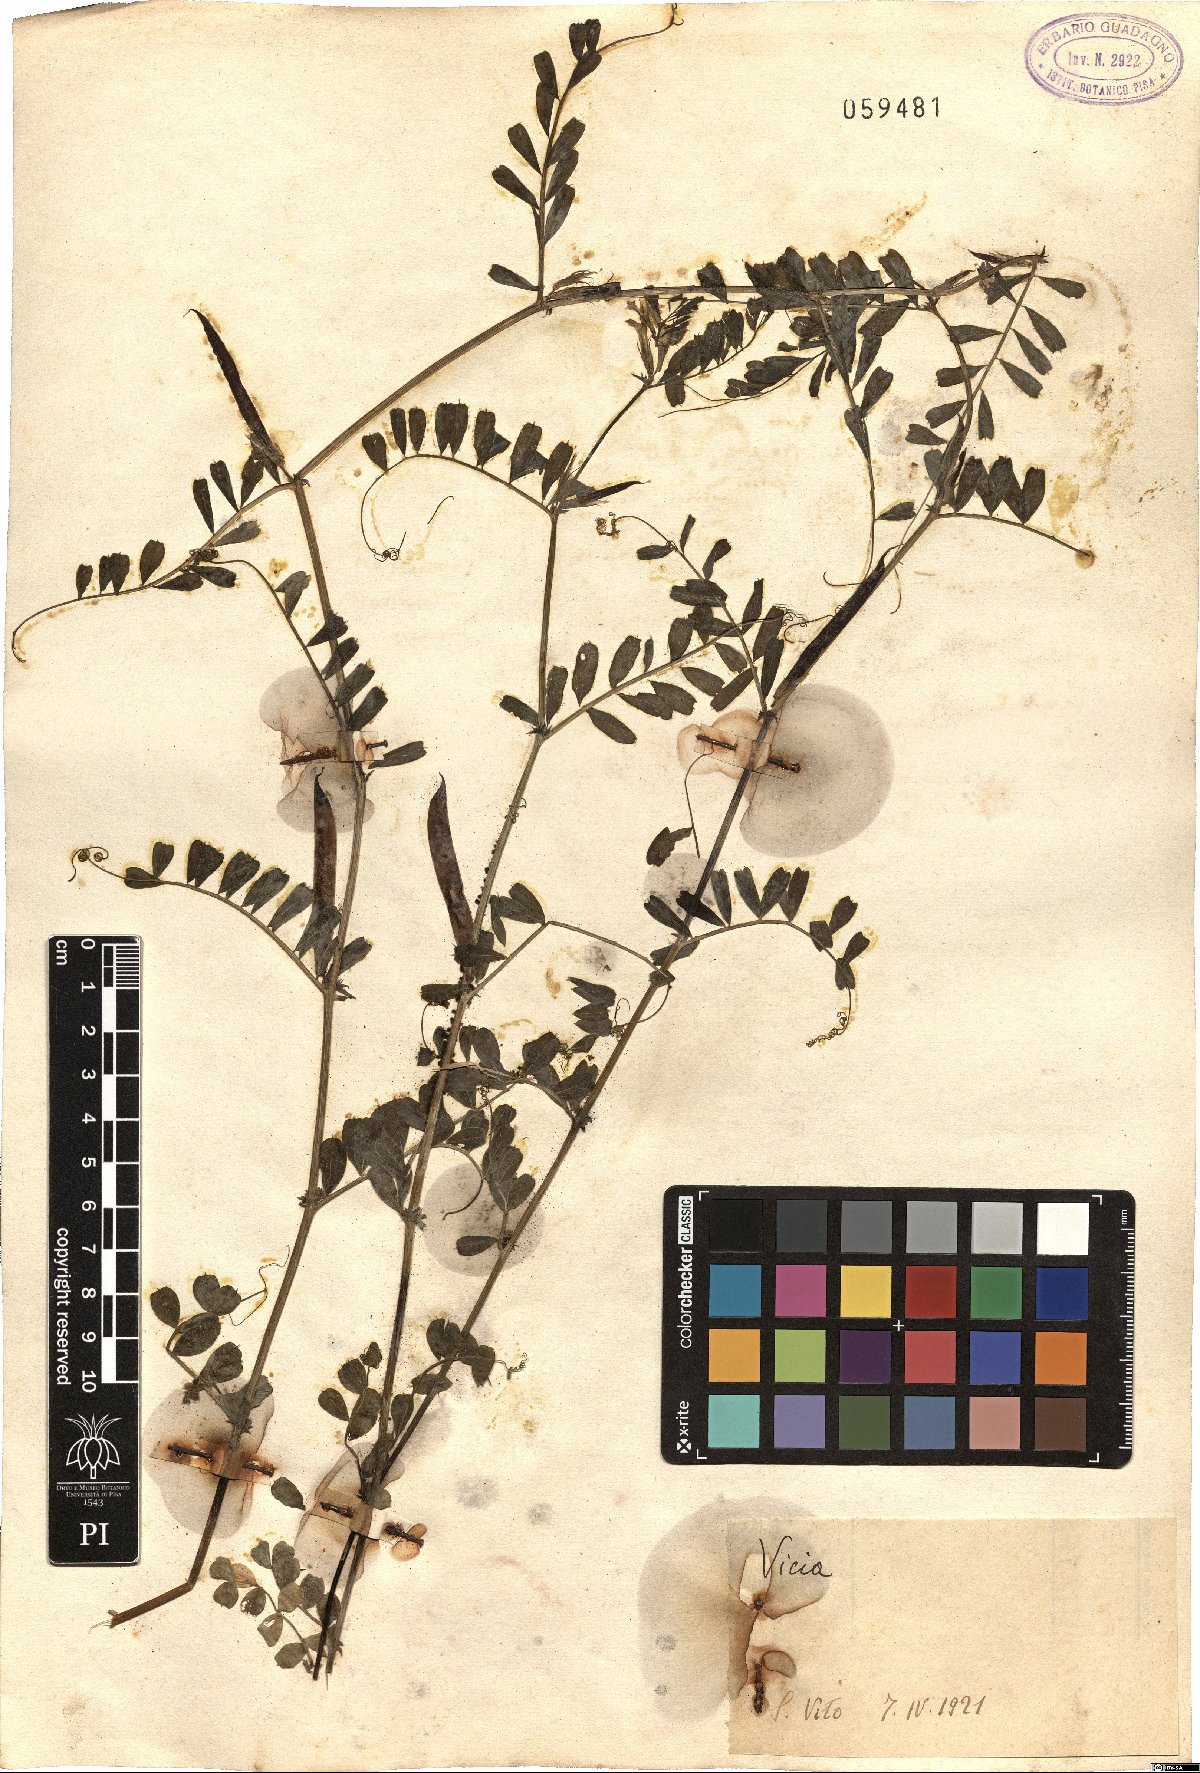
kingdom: Plantae
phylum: Tracheophyta
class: Magnoliopsida
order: Fabales
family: Fabaceae
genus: Vicia
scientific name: Vicia
